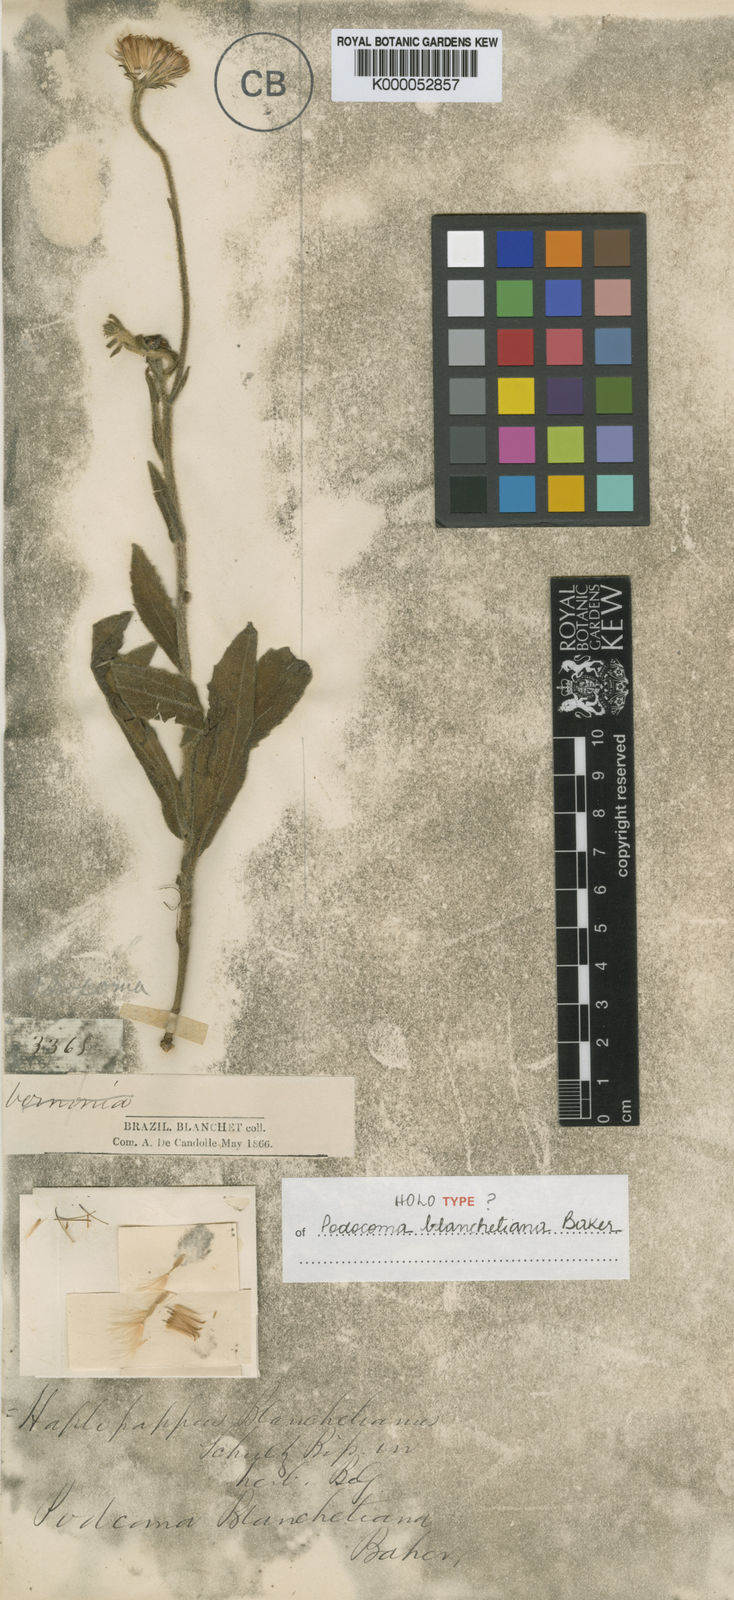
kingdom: Plantae
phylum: Tracheophyta
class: Magnoliopsida
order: Asterales
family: Asteraceae
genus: Podocoma
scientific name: Podocoma blanchetiana
